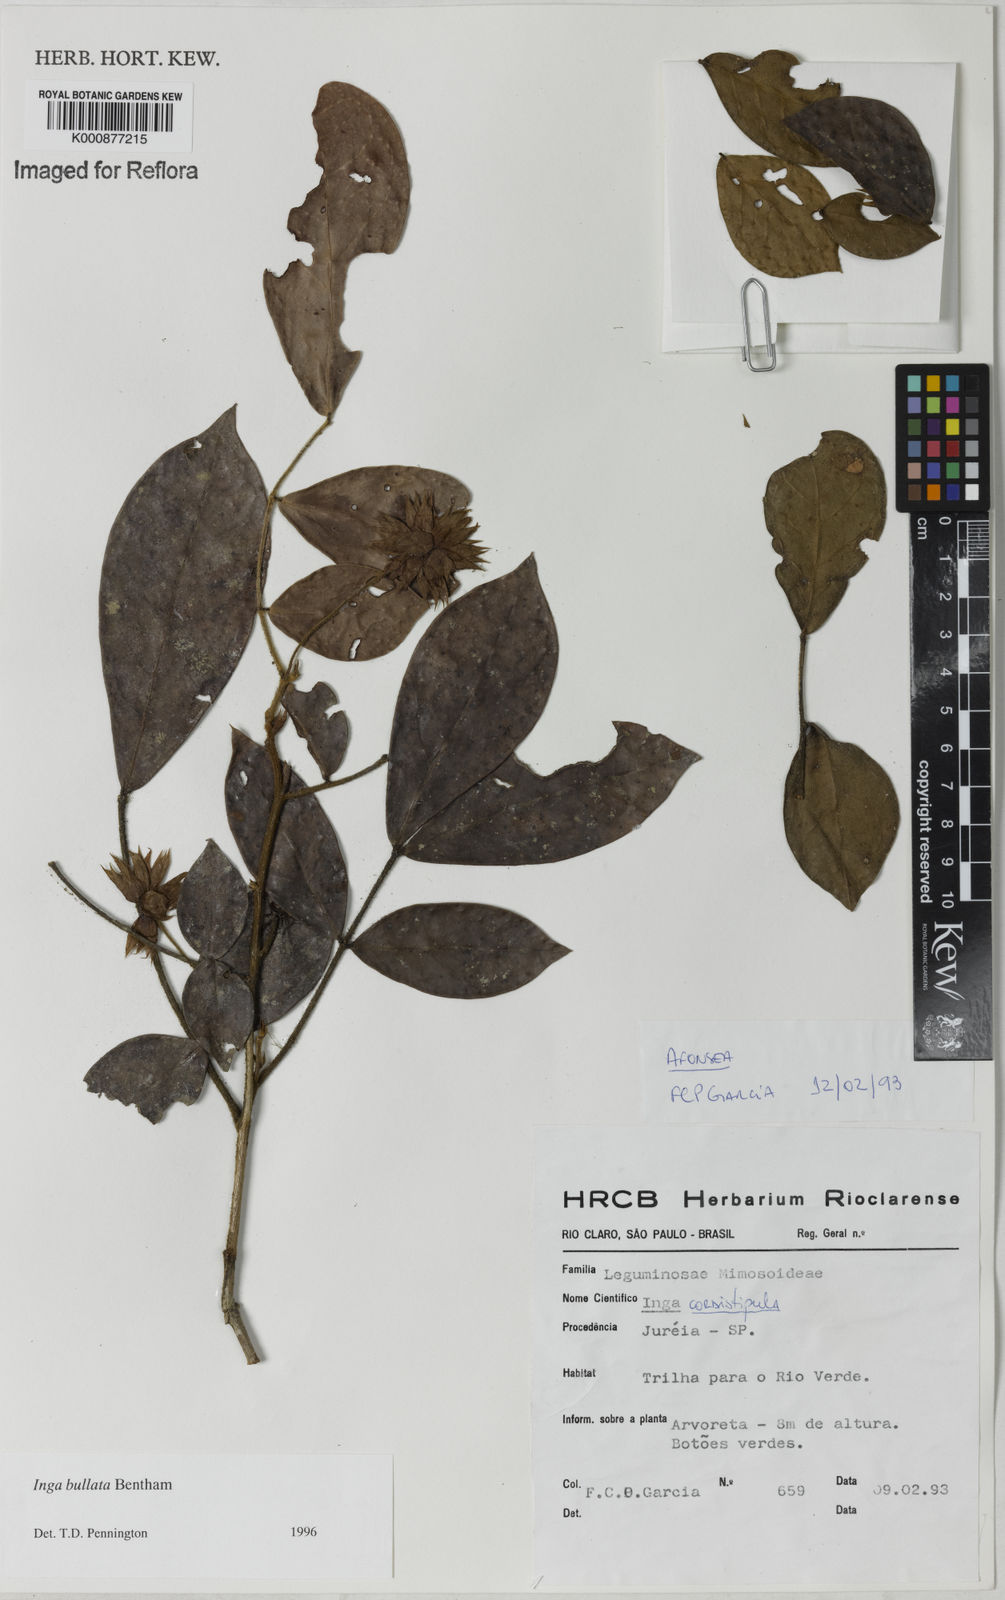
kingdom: Plantae
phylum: Tracheophyta
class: Magnoliopsida
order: Fabales
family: Fabaceae
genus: Inga
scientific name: Inga bullata
